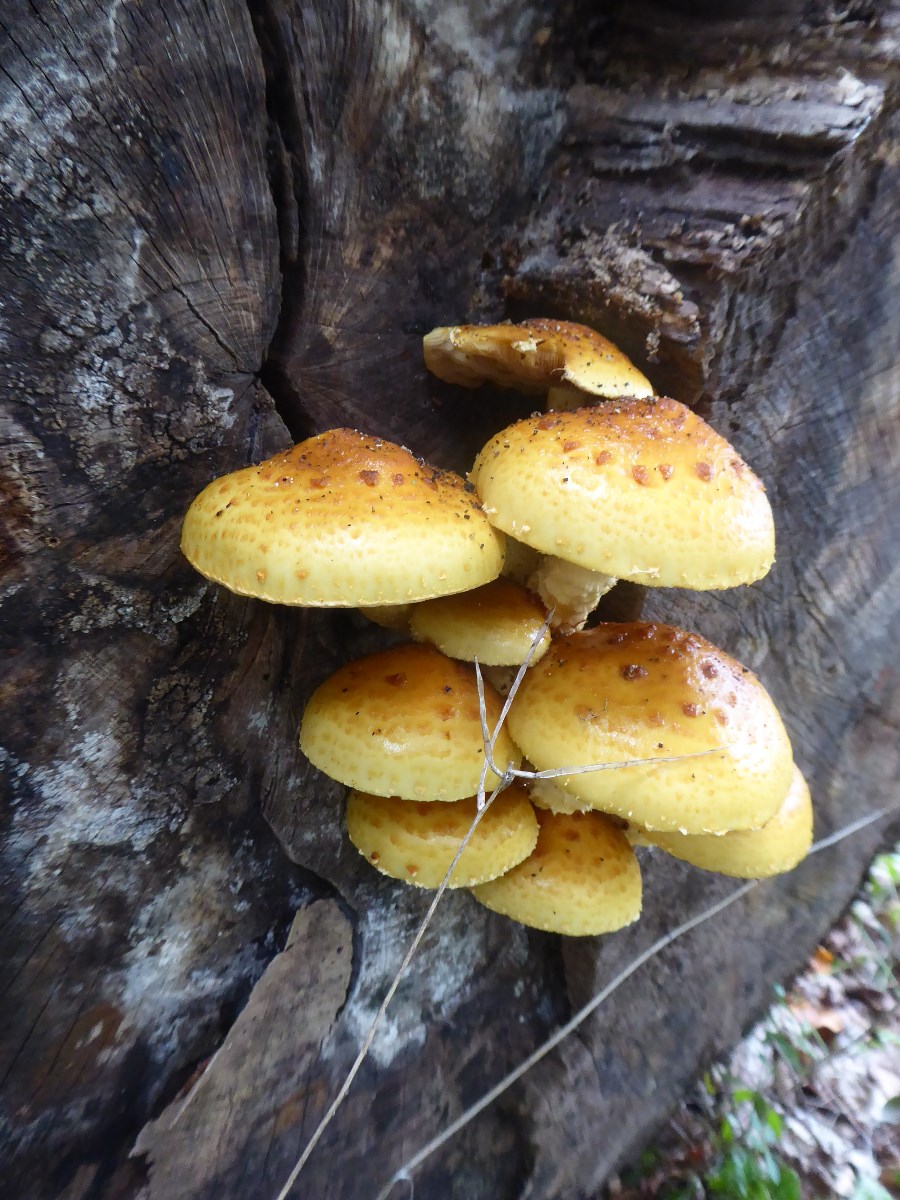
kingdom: Fungi
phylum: Basidiomycota
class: Agaricomycetes
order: Agaricales
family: Strophariaceae
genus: Pholiota
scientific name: Pholiota adiposa
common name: højtsiddende skælhat
